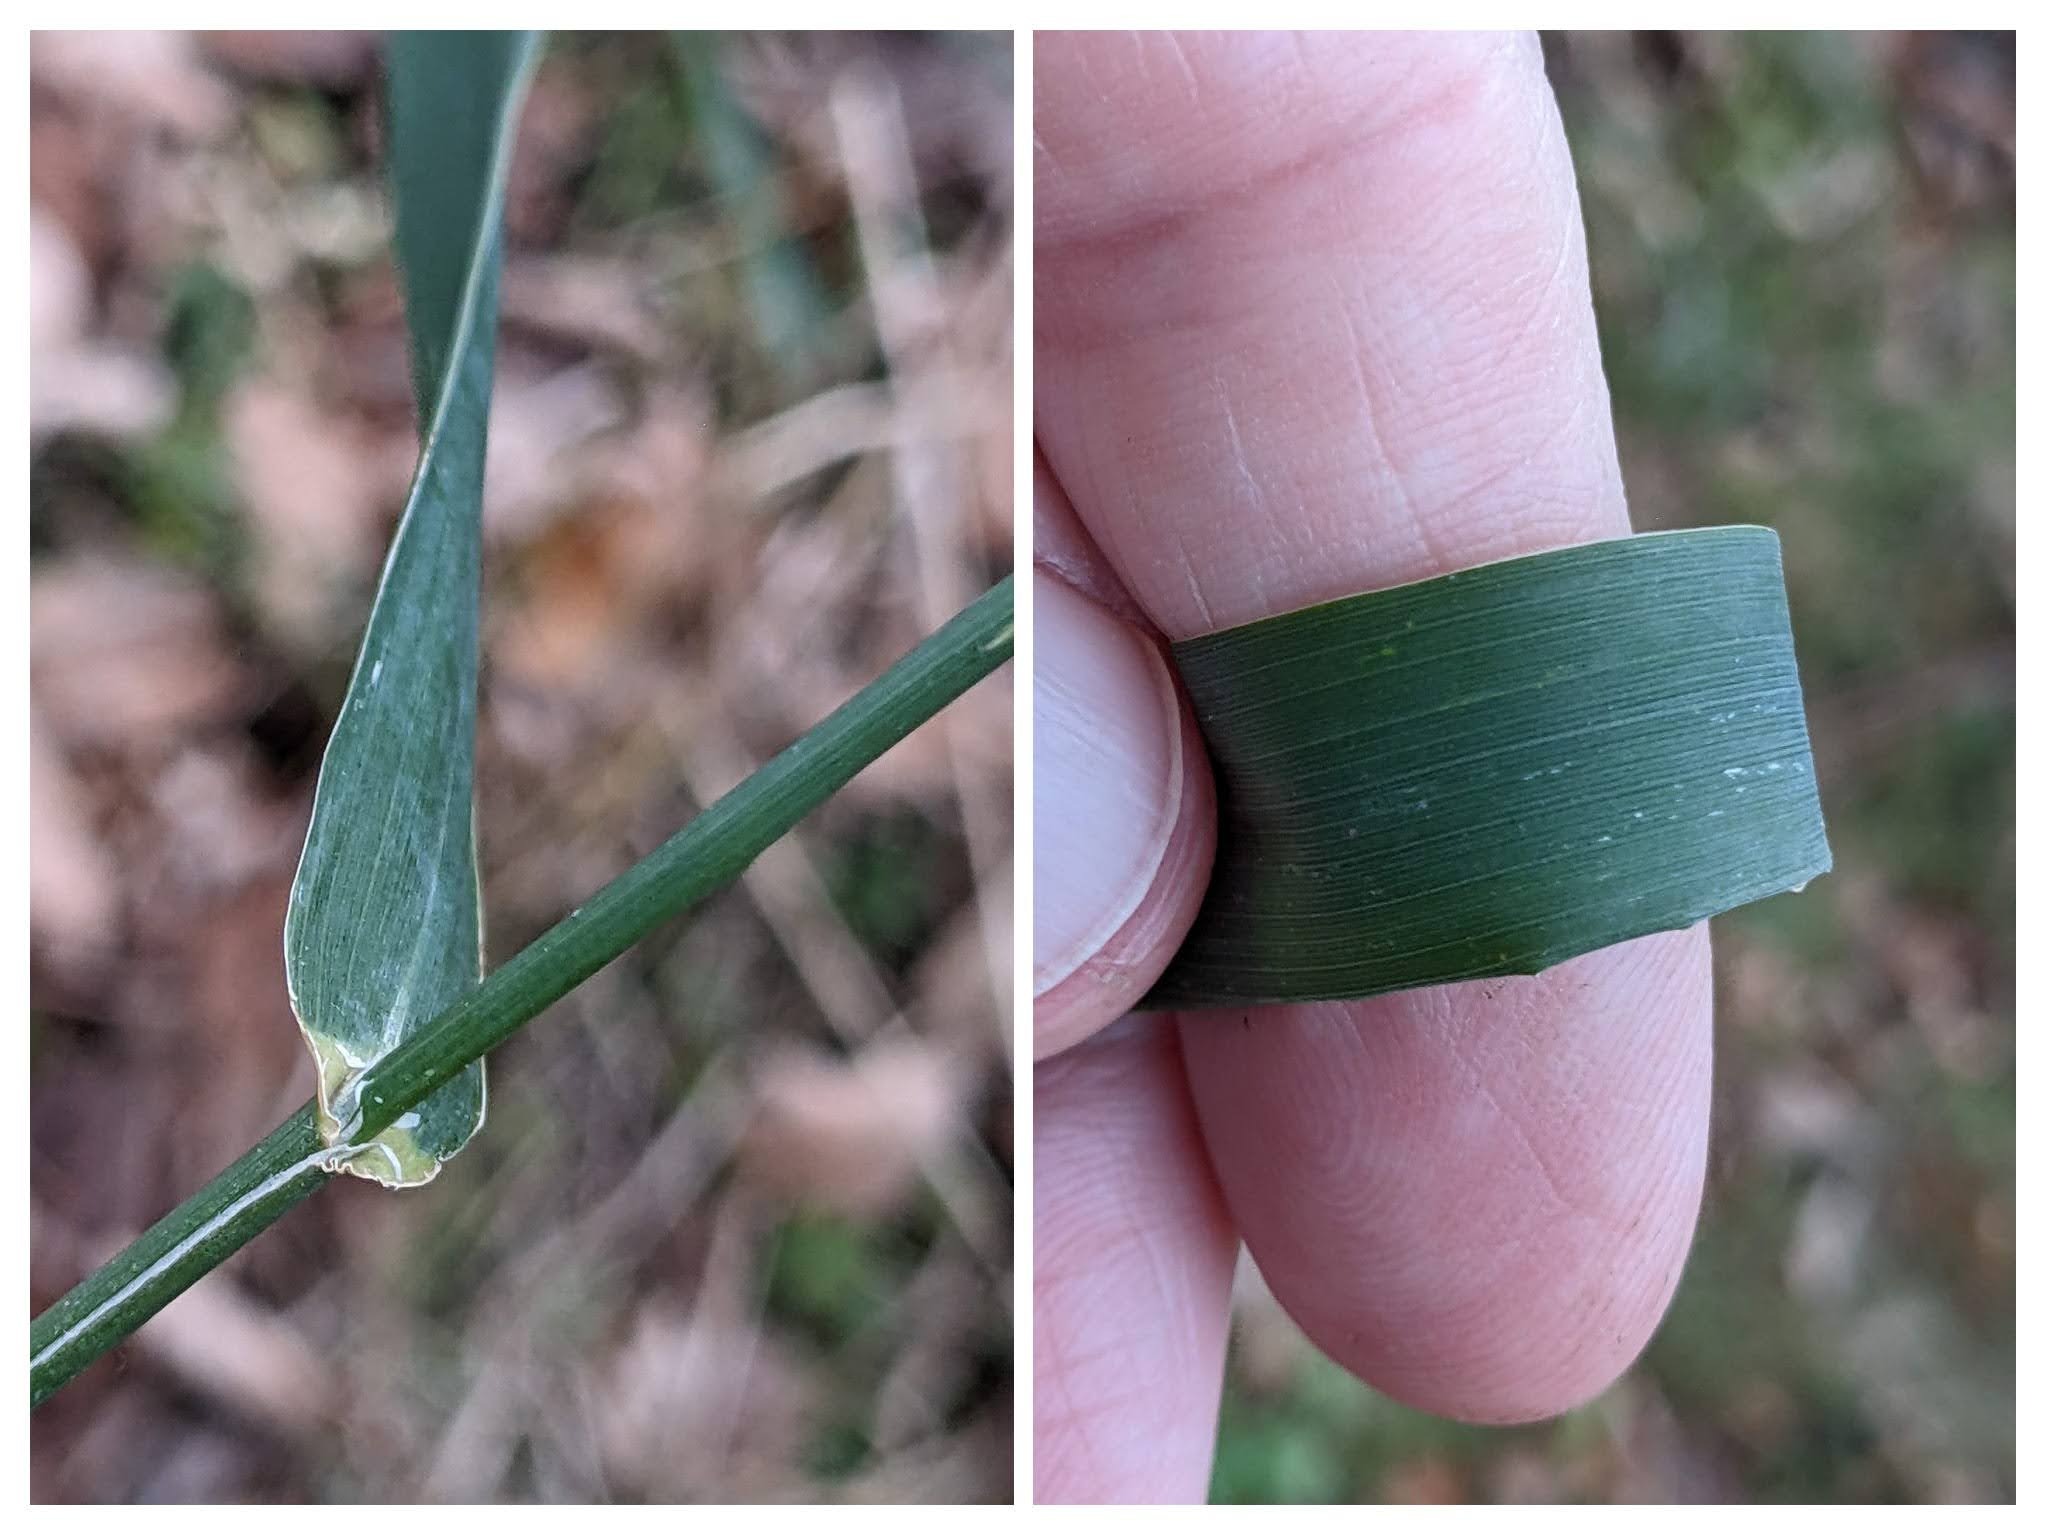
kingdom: Plantae
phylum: Tracheophyta
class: Liliopsida
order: Poales
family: Poaceae
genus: Phalaris
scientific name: Phalaris arundinacea
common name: Rørgræs
